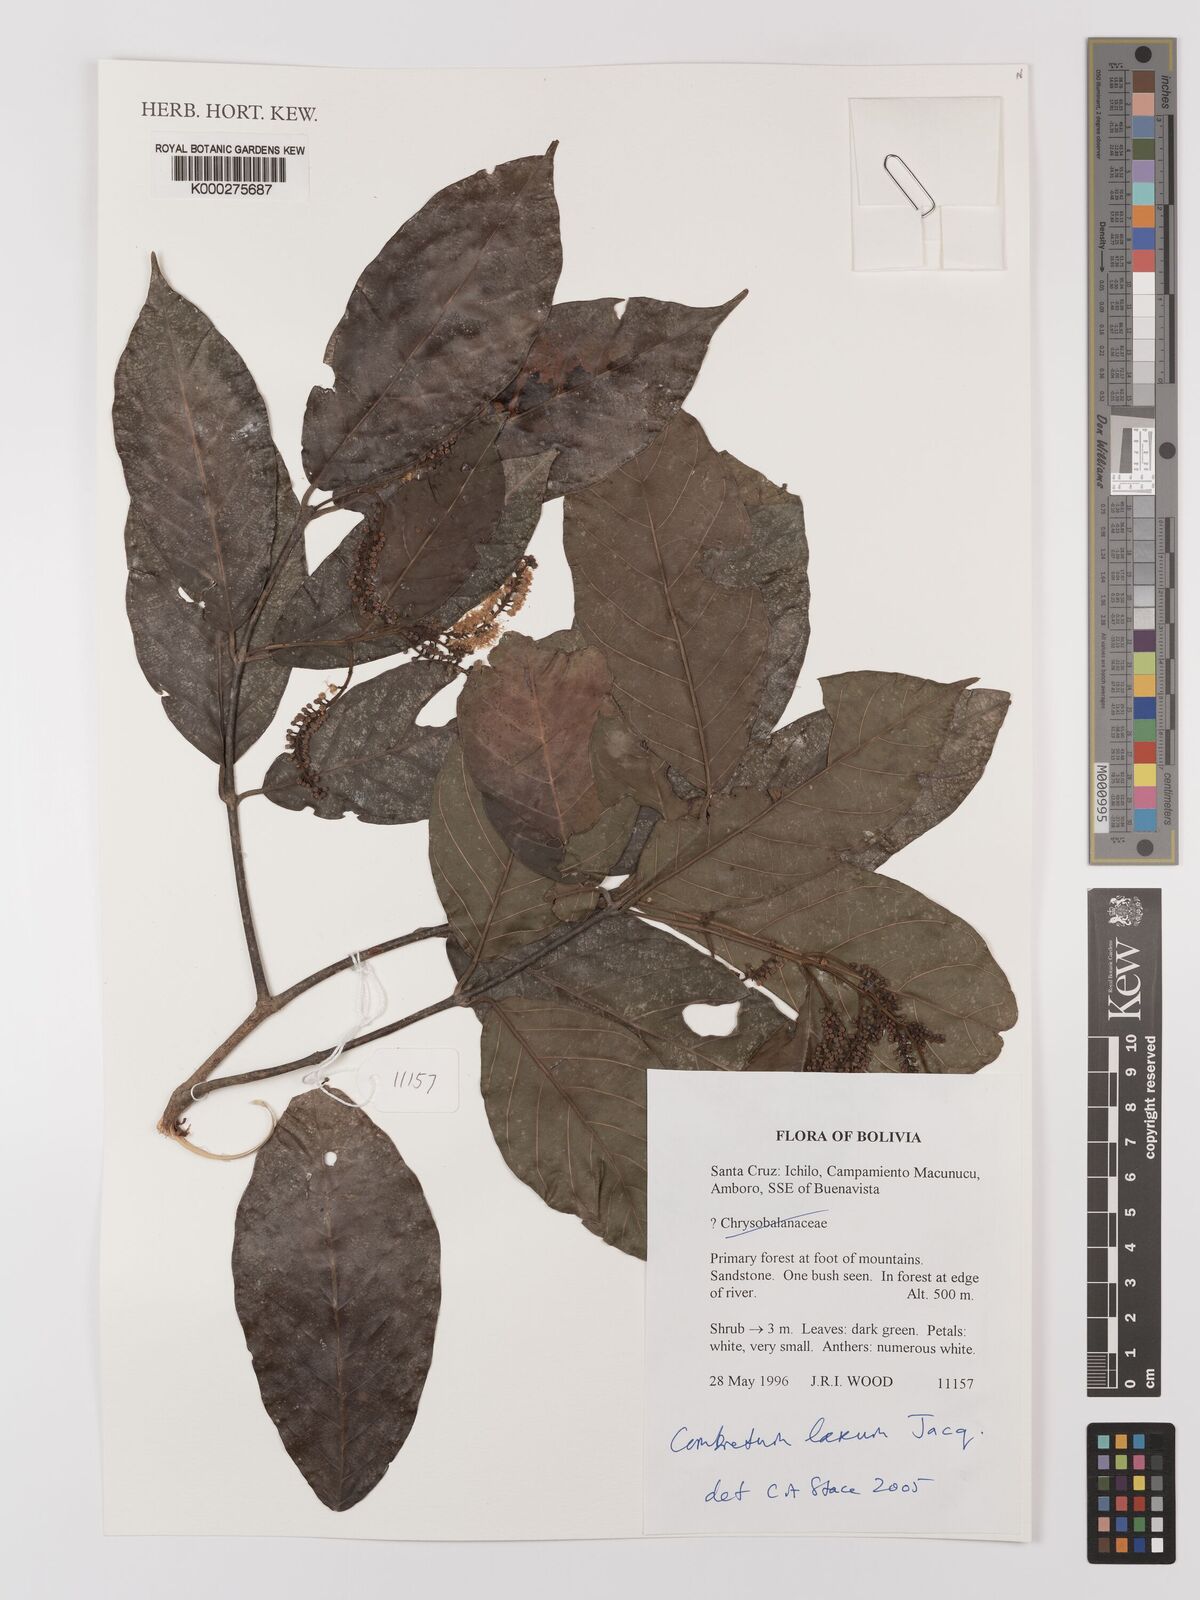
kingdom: Plantae
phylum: Tracheophyta
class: Magnoliopsida
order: Myrtales
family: Combretaceae
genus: Combretum
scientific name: Combretum laxum
